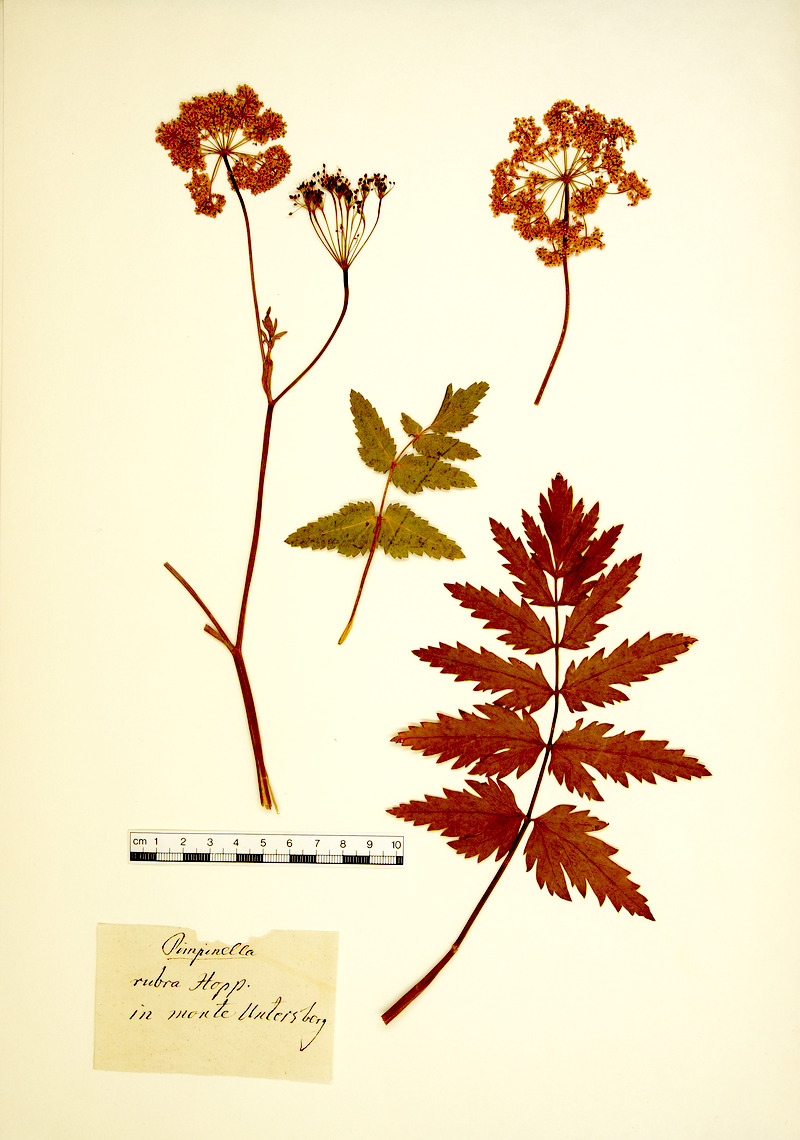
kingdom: Plantae
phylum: Tracheophyta
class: Magnoliopsida
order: Apiales
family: Apiaceae
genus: Pimpinella
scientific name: Pimpinella major
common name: Greater burnet-saxifrage
